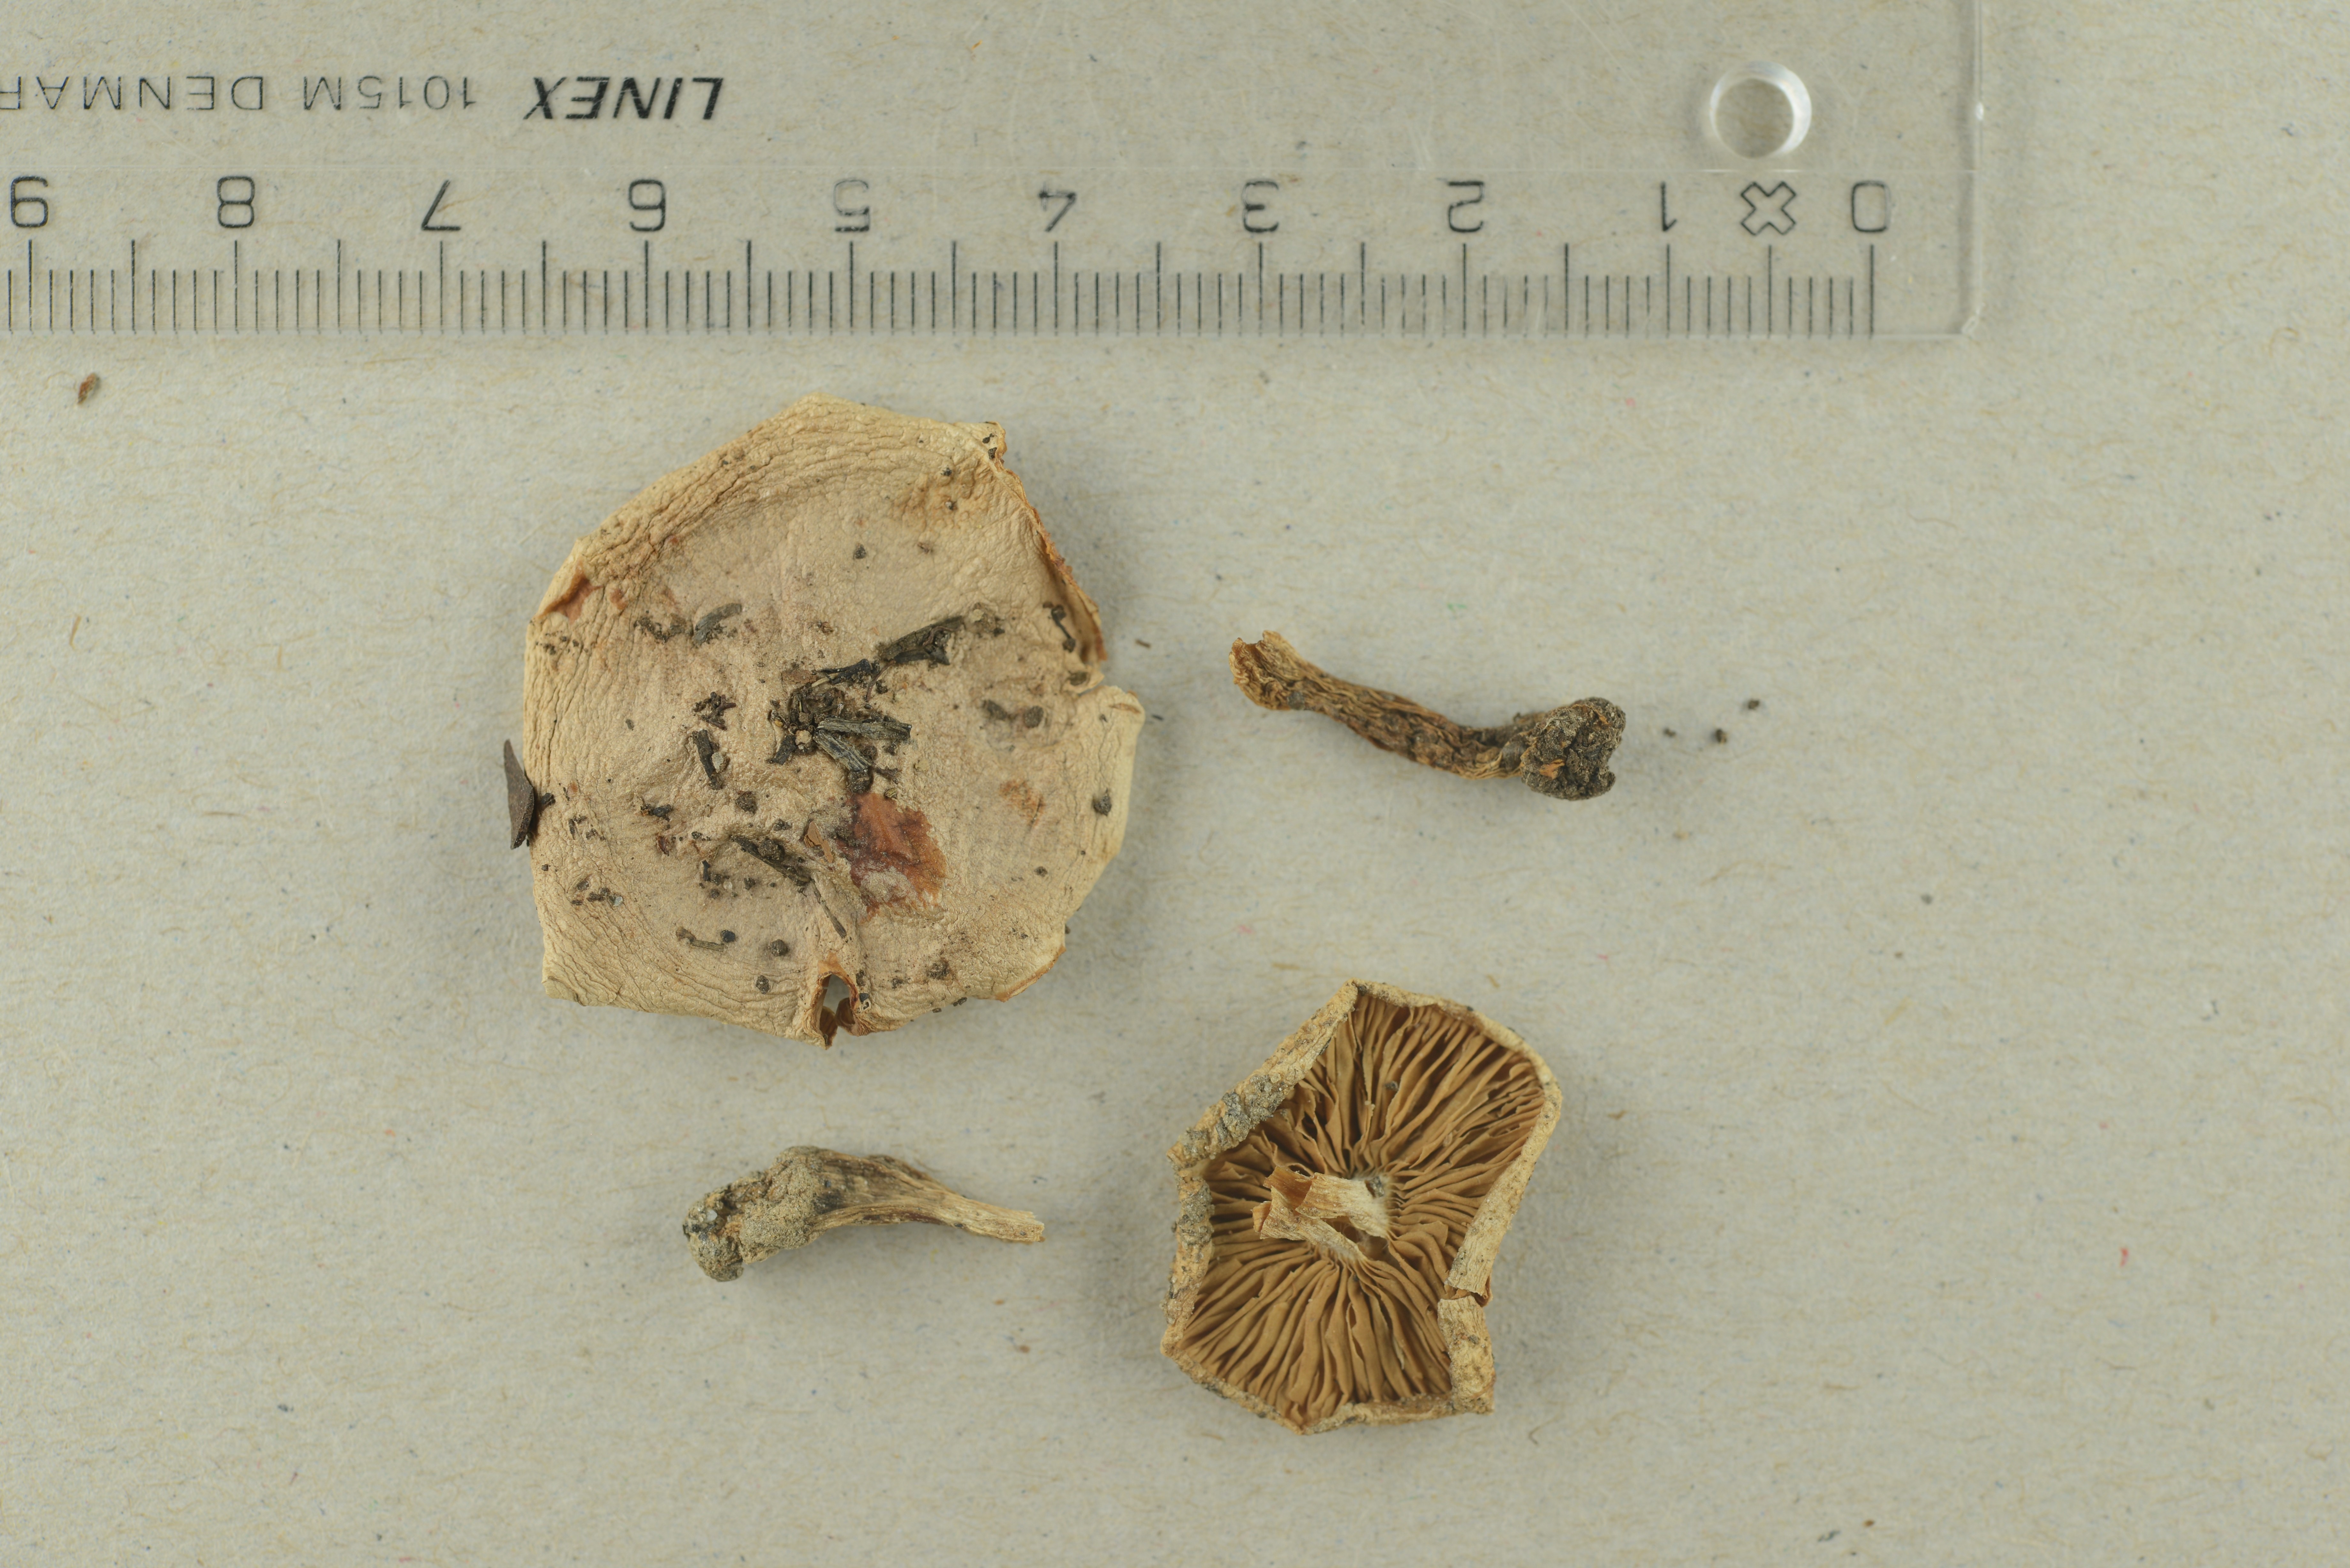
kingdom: Fungi
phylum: Basidiomycota
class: Agaricomycetes
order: Agaricales
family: Hymenogastraceae
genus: Hebeloma
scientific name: Hebeloma cavipes
